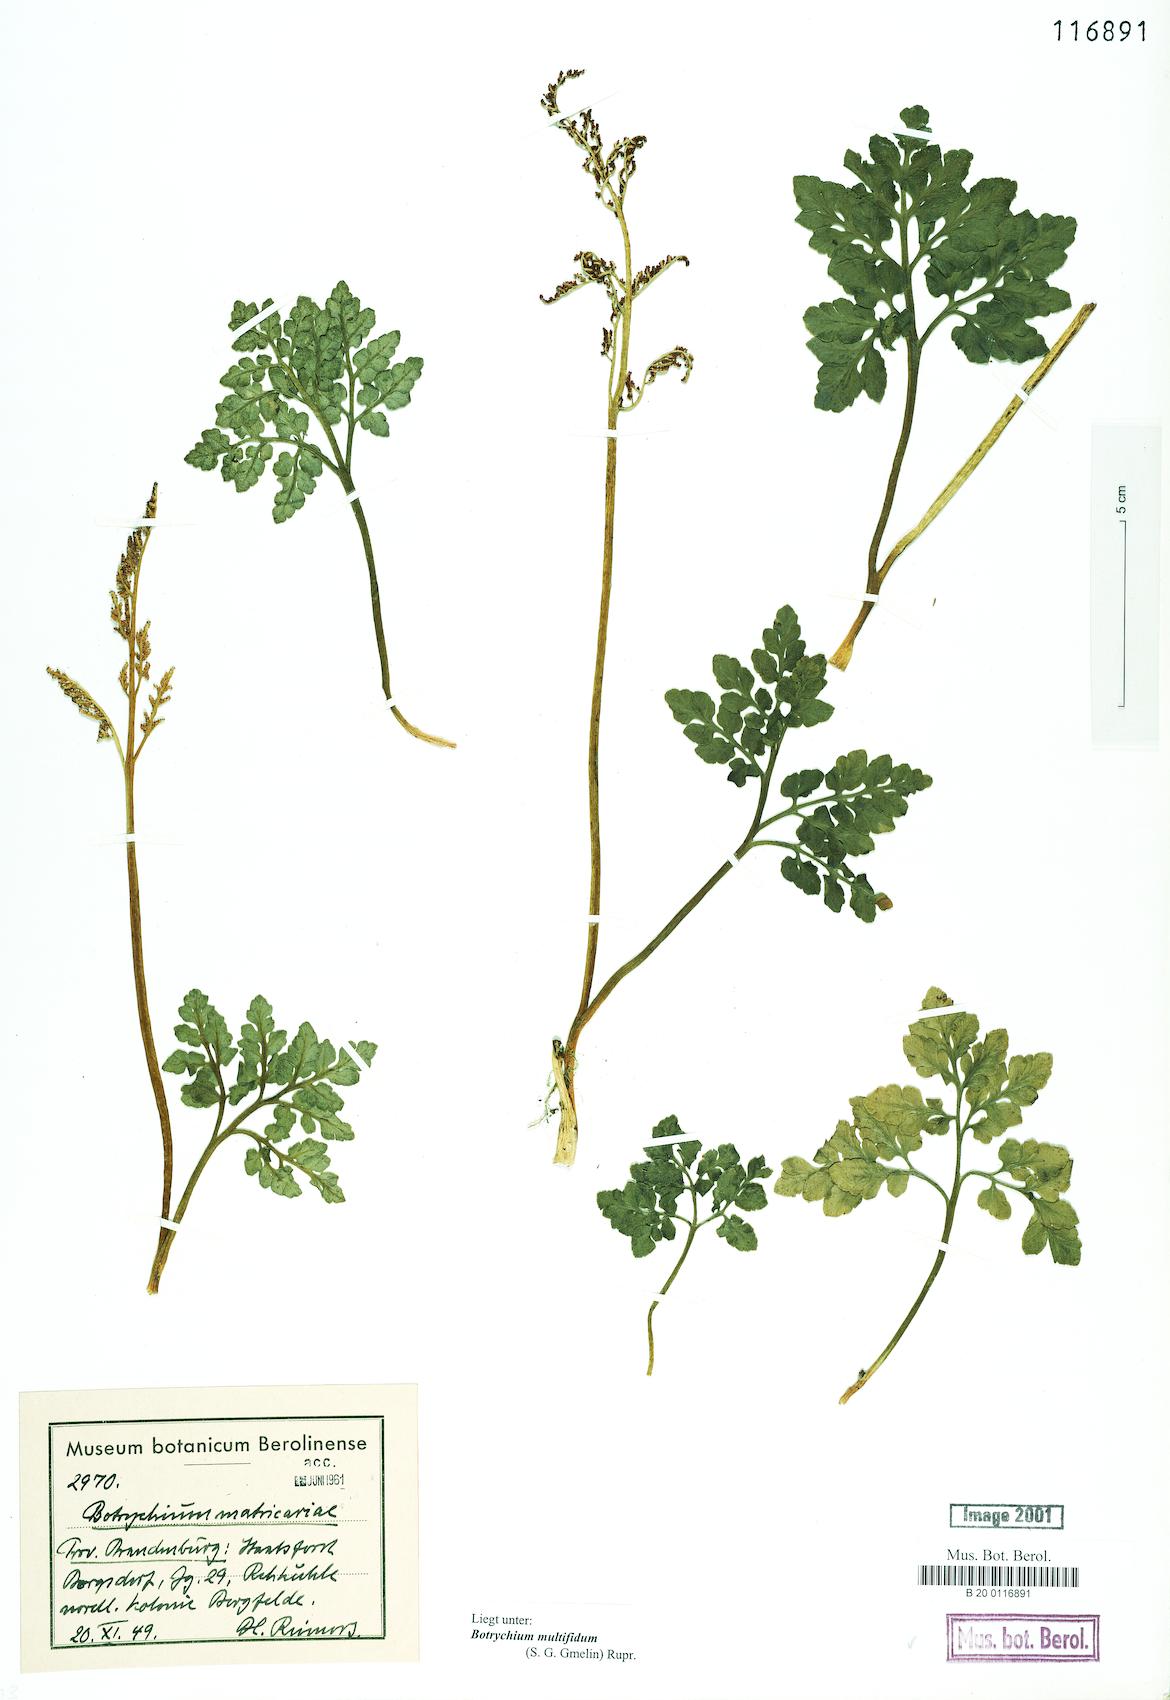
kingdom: Plantae
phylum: Tracheophyta
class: Polypodiopsida
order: Ophioglossales
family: Ophioglossaceae
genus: Sceptridium
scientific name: Sceptridium multifidum
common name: Leathery grape fern
